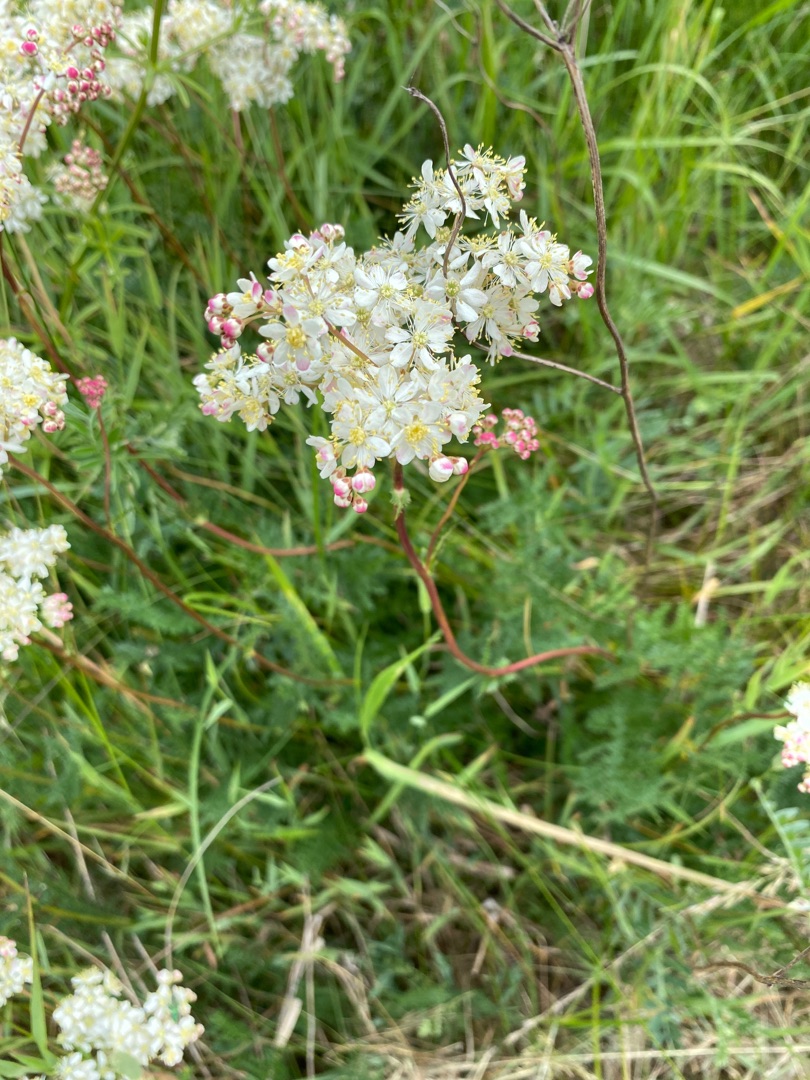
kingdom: Plantae
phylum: Tracheophyta
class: Magnoliopsida
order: Rosales
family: Rosaceae
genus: Filipendula
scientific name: Filipendula vulgaris
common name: Knoldet mjødurt
